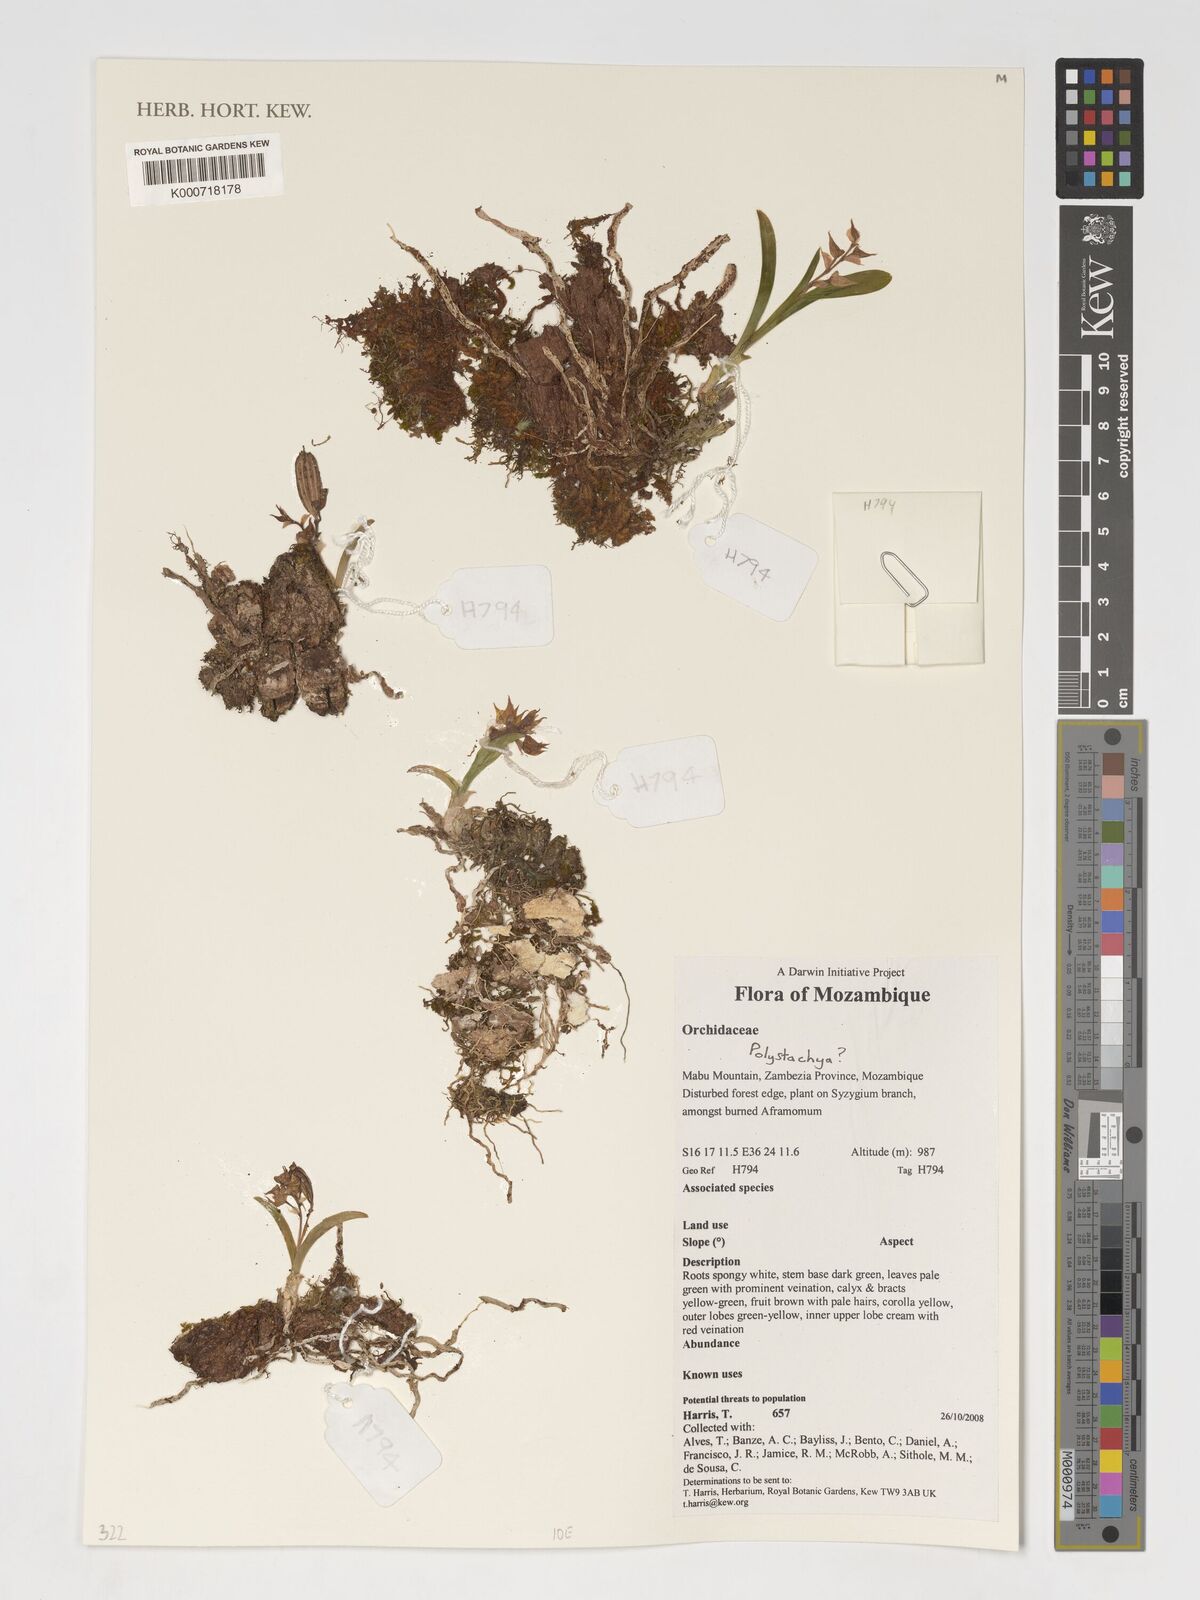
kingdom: Plantae
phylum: Tracheophyta
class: Liliopsida
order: Asparagales
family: Orchidaceae
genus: Polystachya
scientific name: Polystachya
